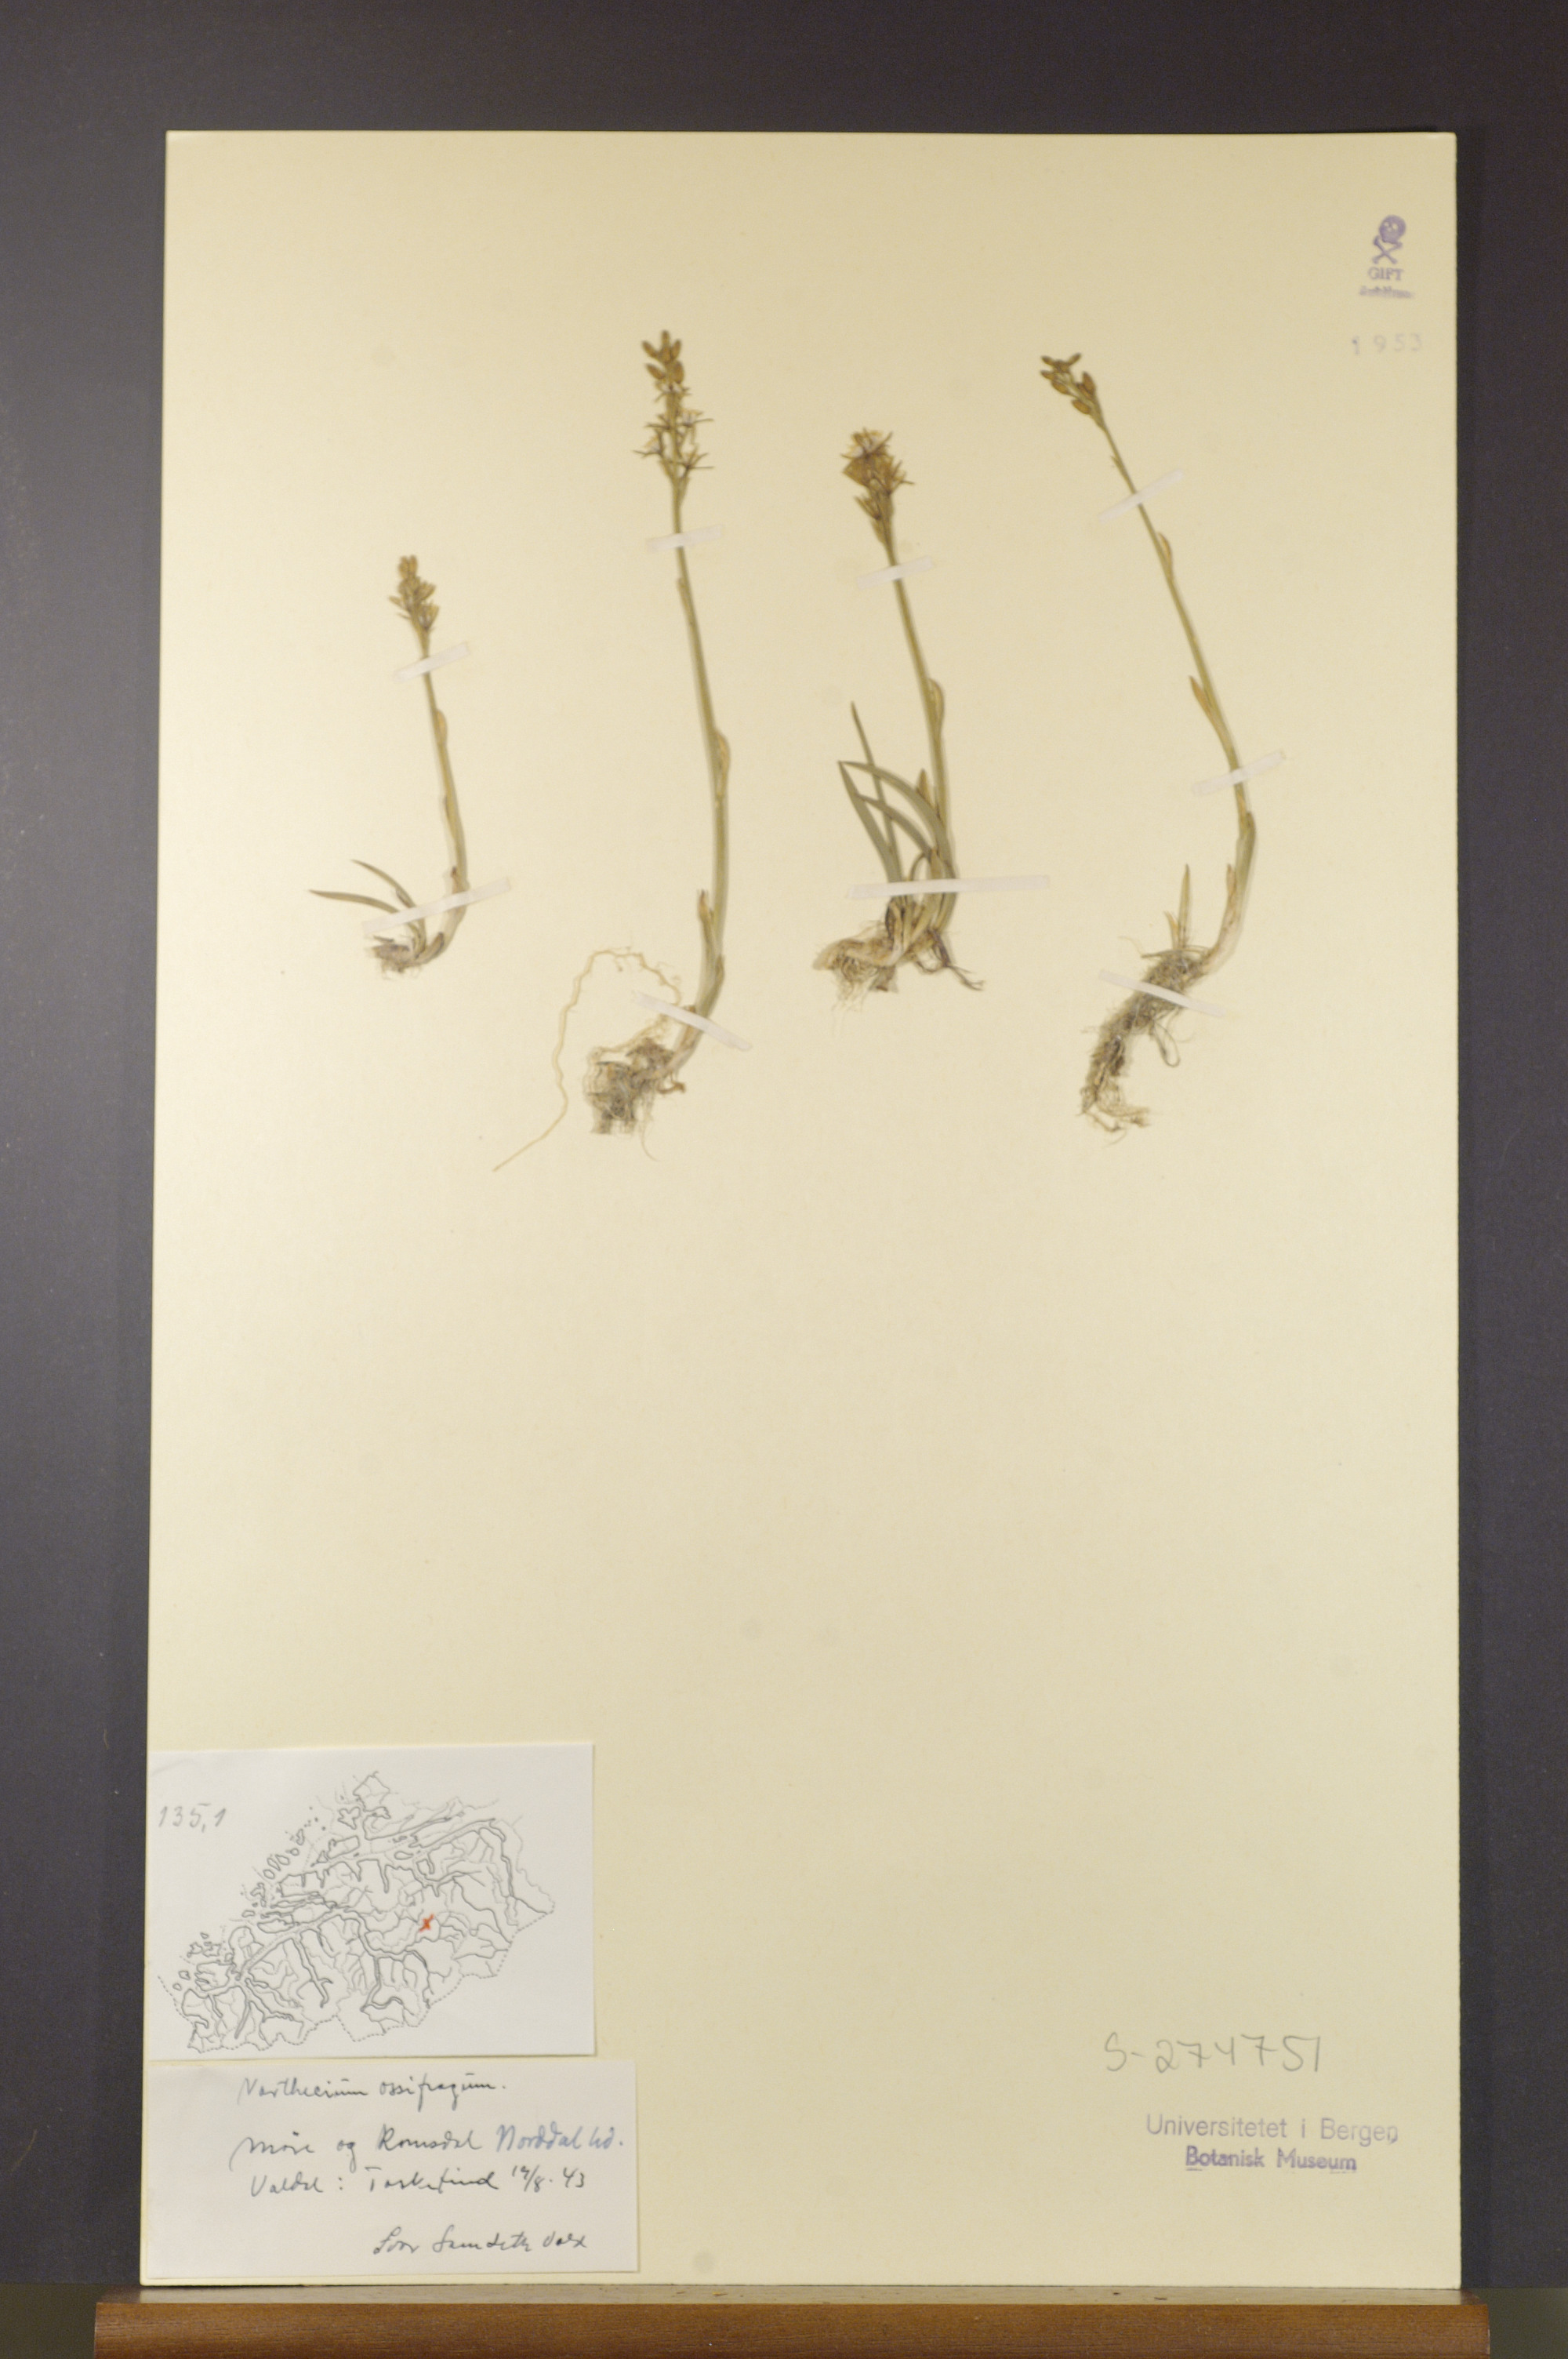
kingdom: Plantae
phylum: Tracheophyta
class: Liliopsida
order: Dioscoreales
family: Nartheciaceae
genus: Narthecium
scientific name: Narthecium ossifragum
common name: Bog asphodel
